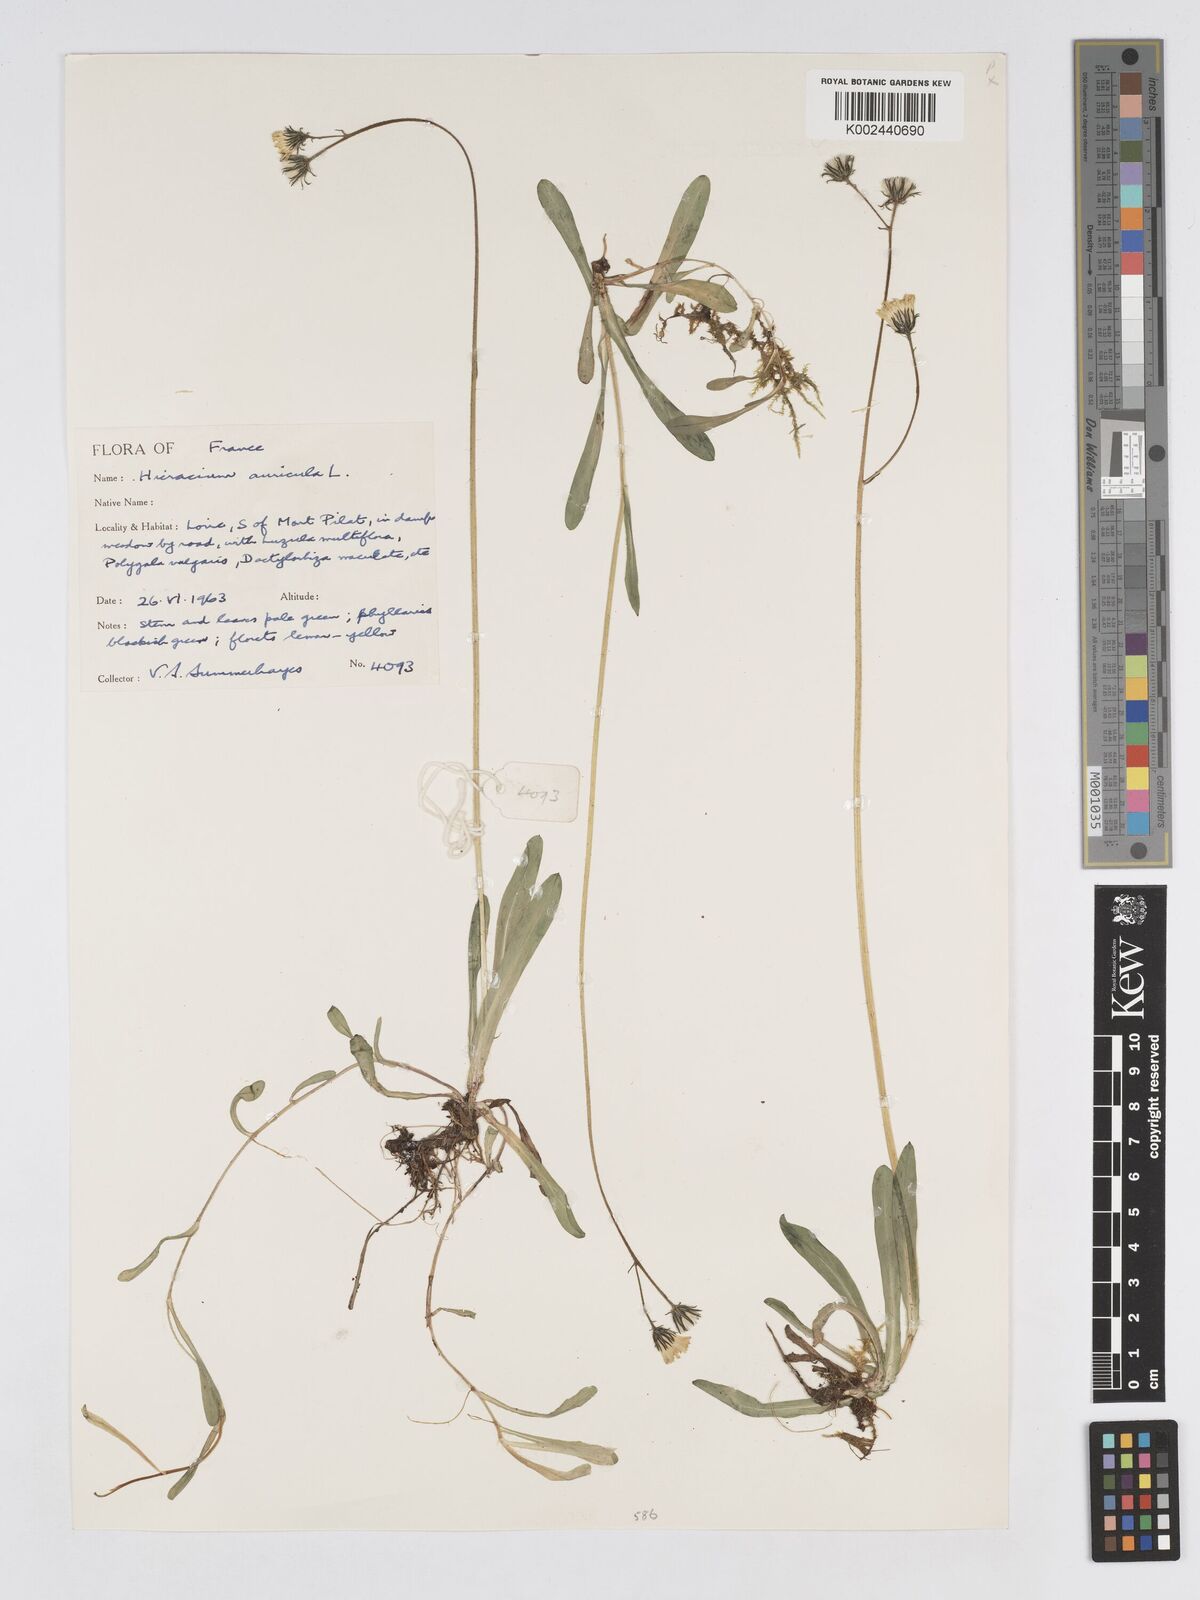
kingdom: Plantae
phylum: Tracheophyta
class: Magnoliopsida
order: Asterales
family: Asteraceae
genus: Pilosella
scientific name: Pilosella floribunda
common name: Glaucous hawkweed
